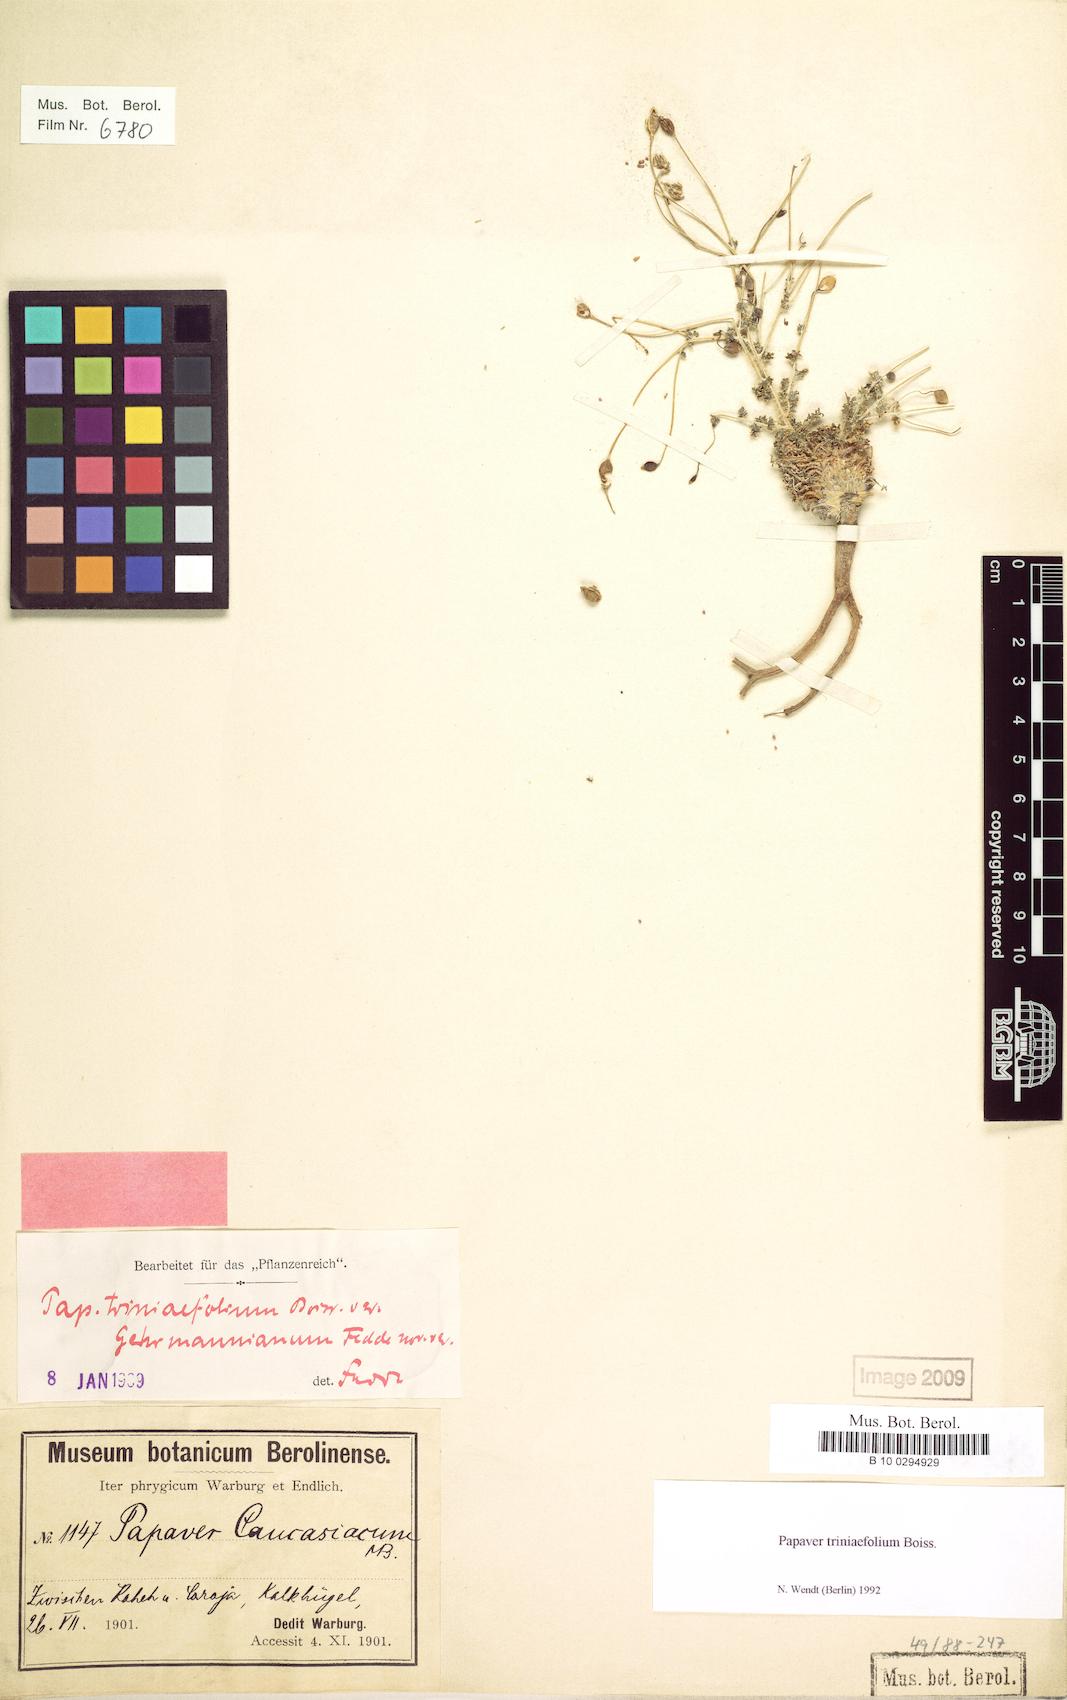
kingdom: Plantae
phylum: Tracheophyta
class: Magnoliopsida
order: Ranunculales
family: Papaveraceae
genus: Papaver
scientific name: Papaver triniifolium
